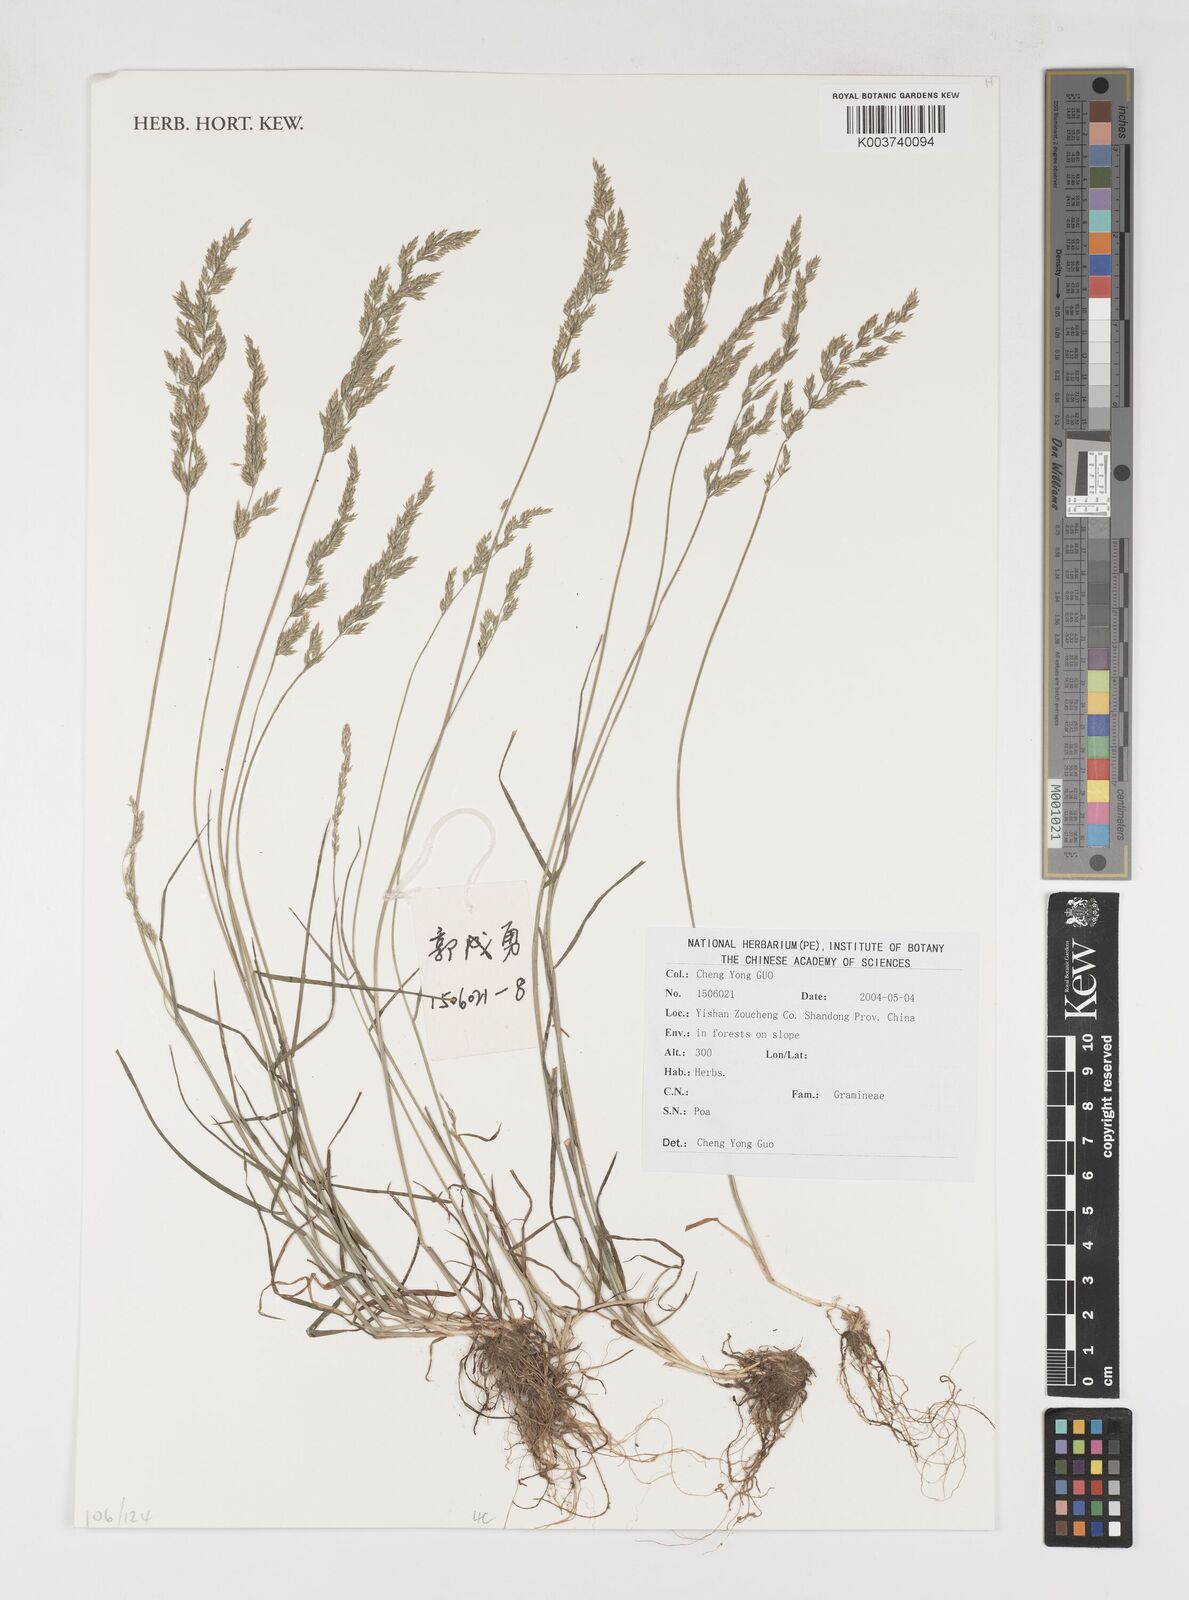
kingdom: Plantae
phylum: Tracheophyta
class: Liliopsida
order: Poales
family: Poaceae
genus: Poa
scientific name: Poa
